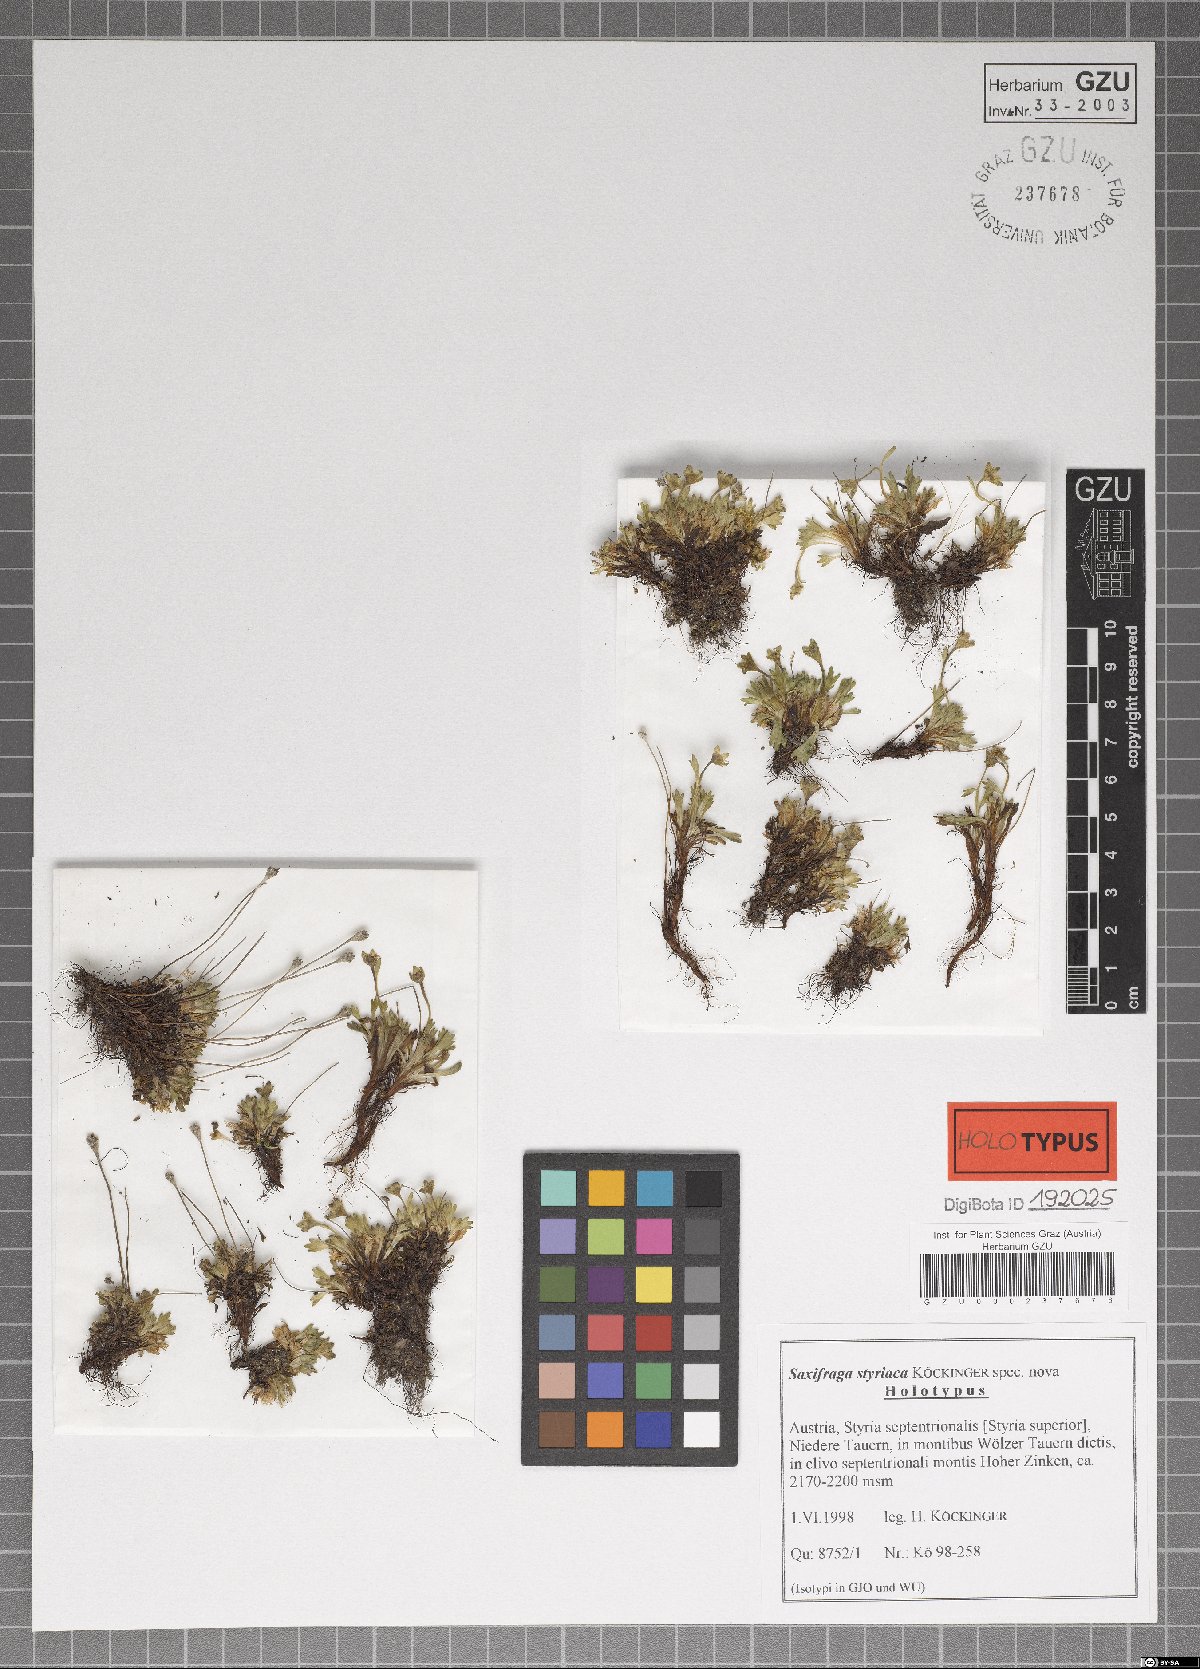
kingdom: Plantae
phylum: Tracheophyta
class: Magnoliopsida
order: Saxifragales
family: Saxifragaceae
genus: Saxifraga
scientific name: Saxifraga styriaca
